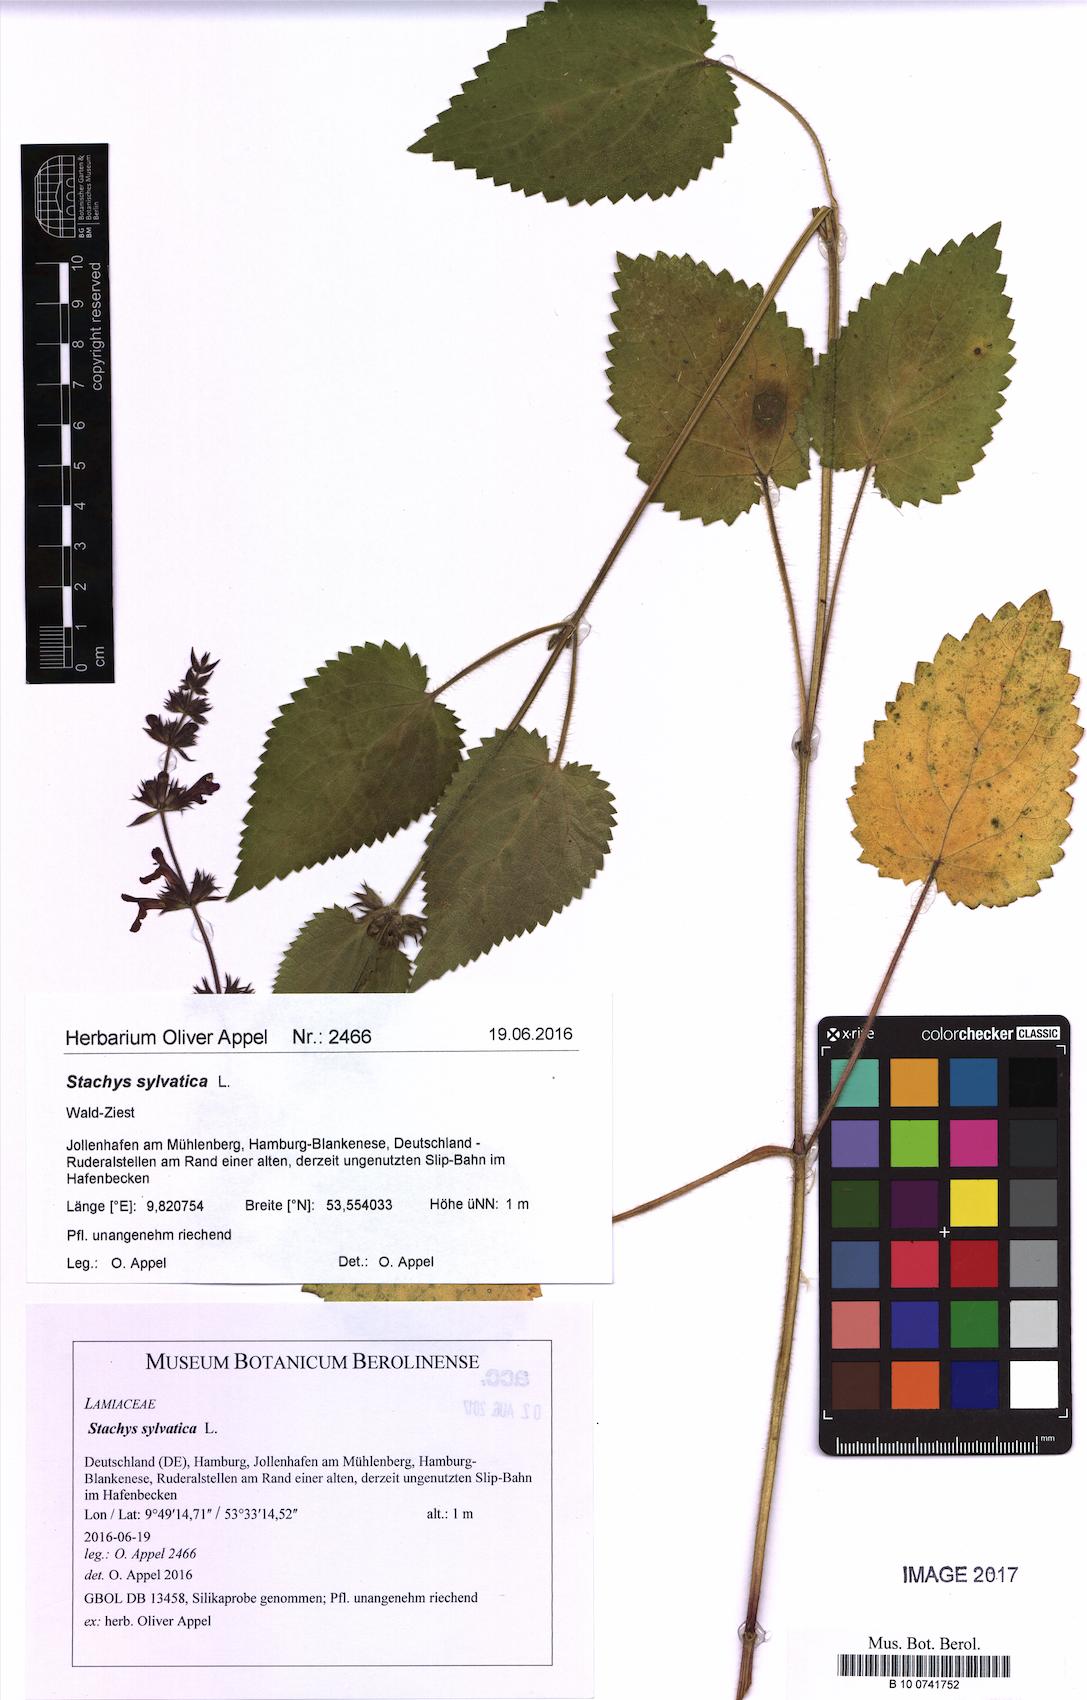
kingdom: Plantae
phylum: Tracheophyta
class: Magnoliopsida
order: Lamiales
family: Lamiaceae
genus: Stachys
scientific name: Stachys sylvatica
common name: Hedge woundwort
